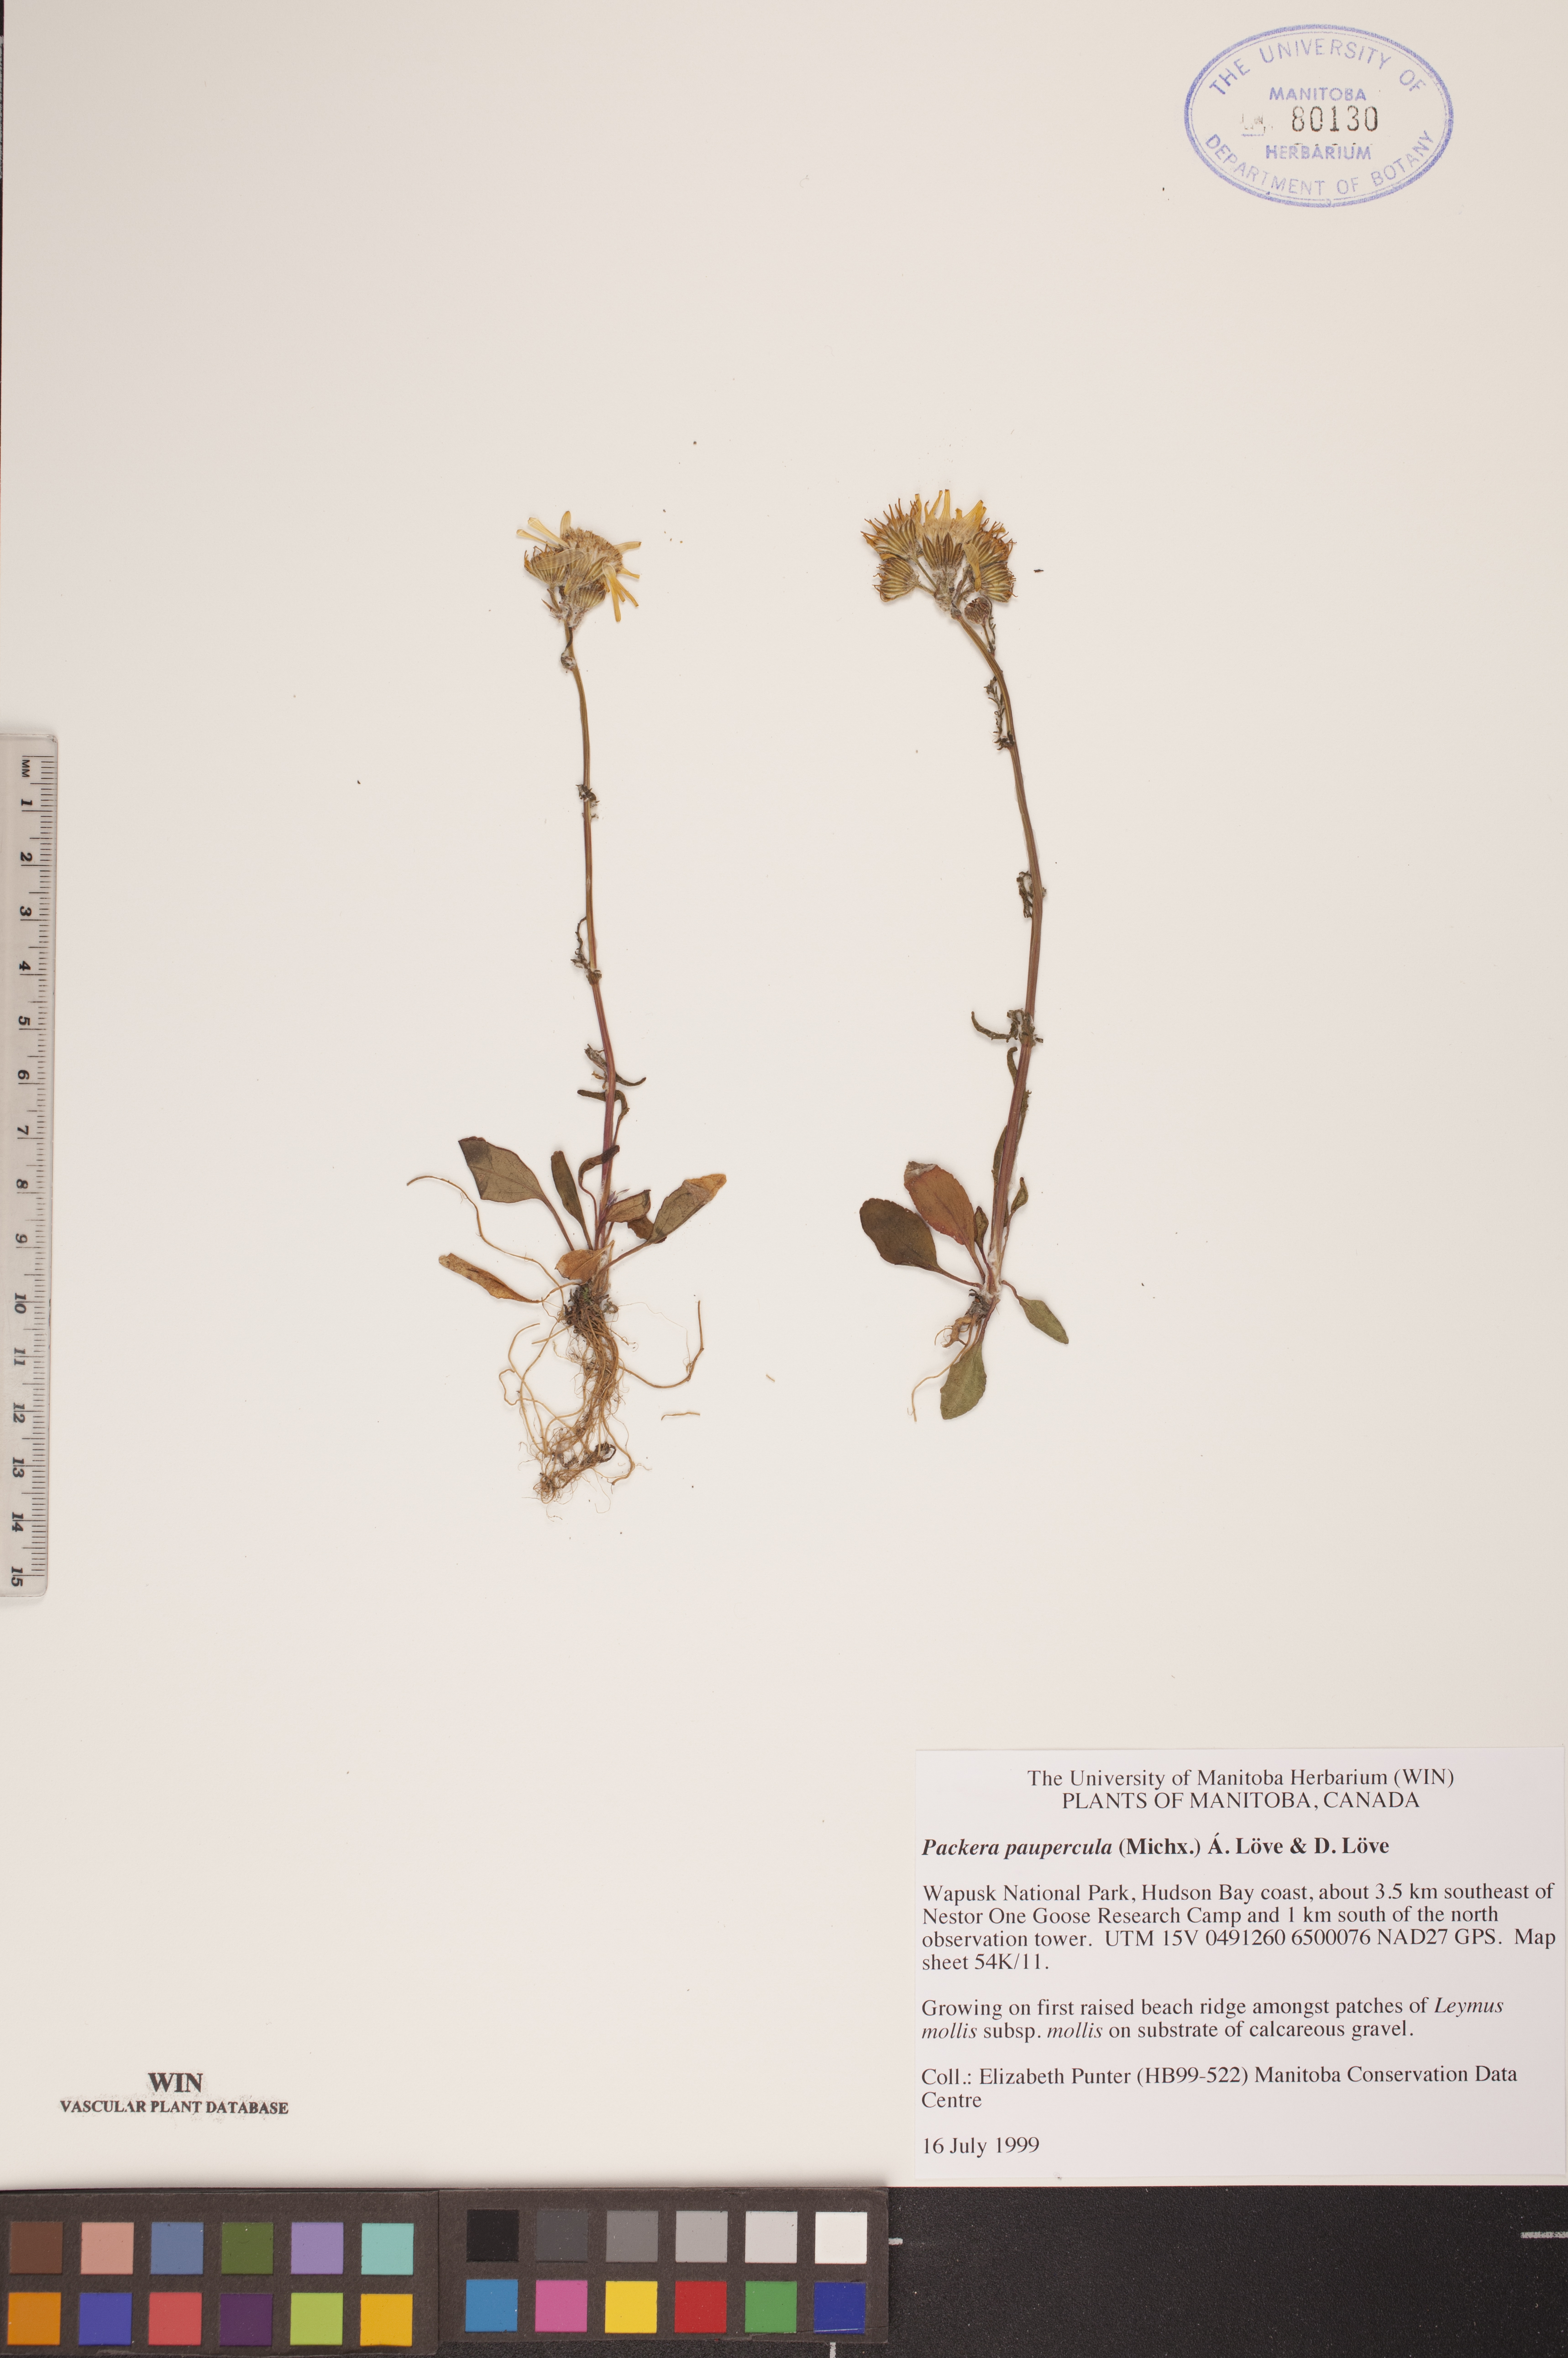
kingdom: Plantae
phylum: Tracheophyta
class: Magnoliopsida
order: Asterales
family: Asteraceae
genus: Packera
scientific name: Packera paupercula
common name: Balsam groundsel
